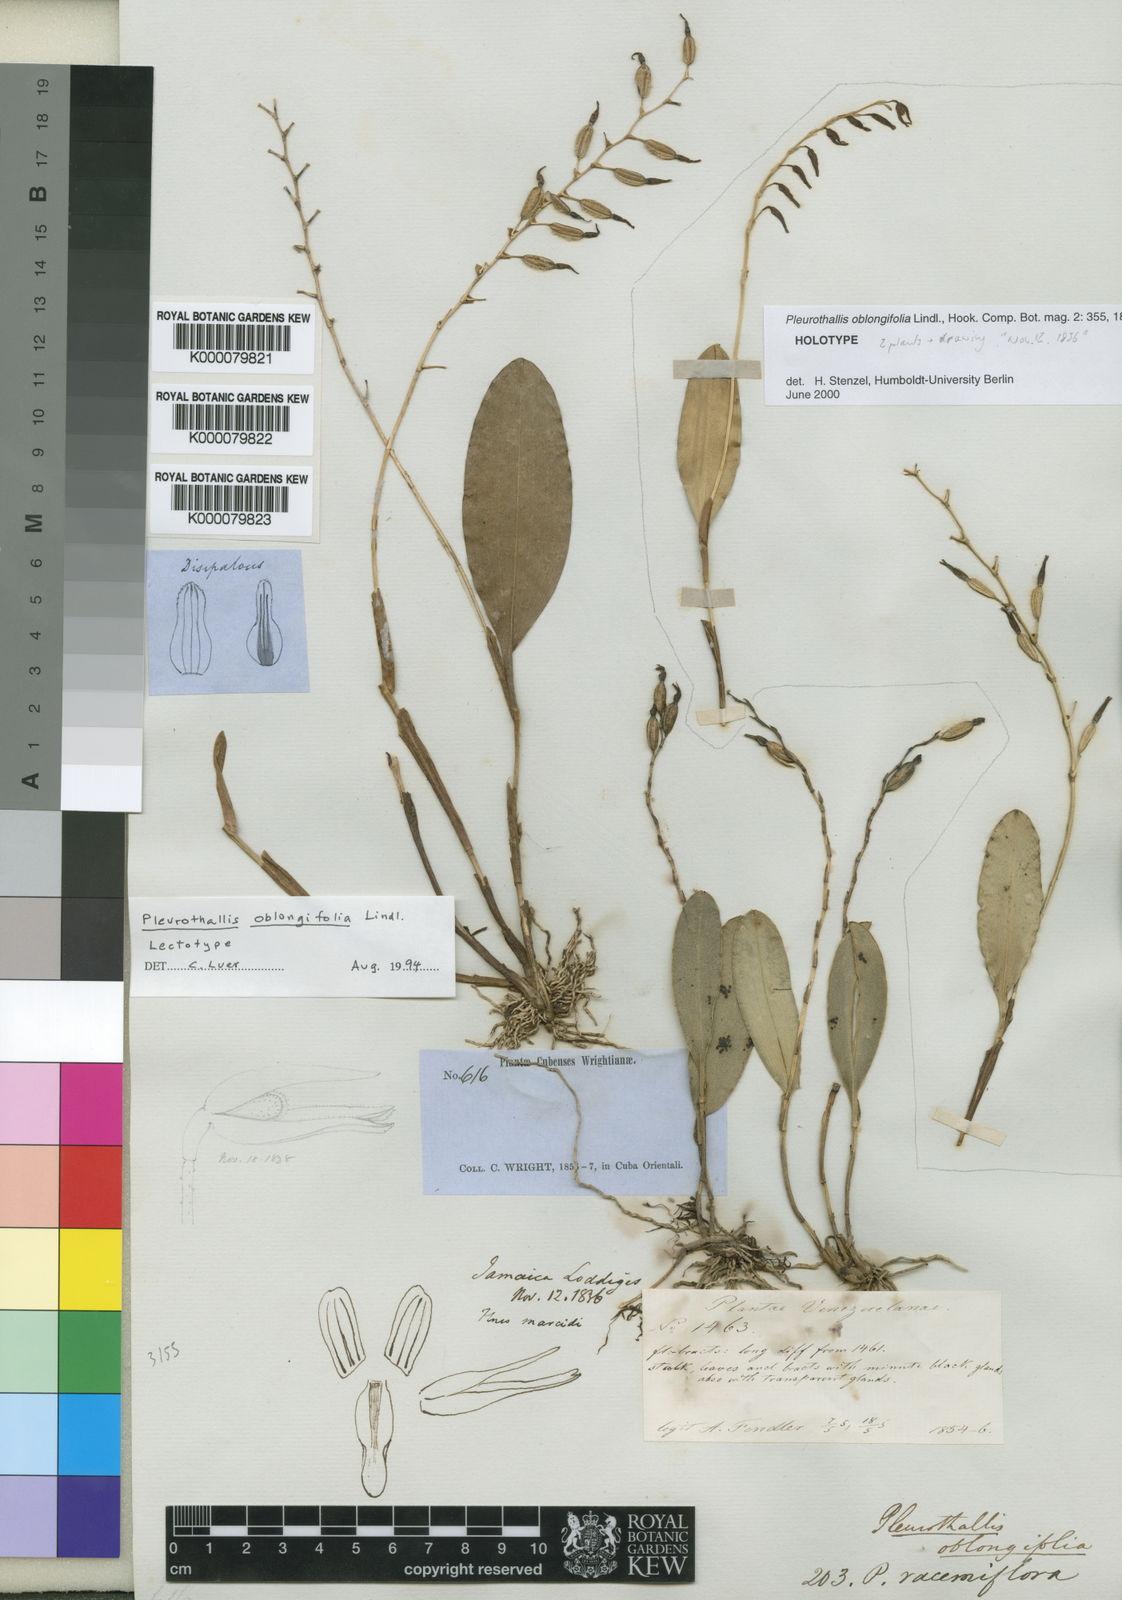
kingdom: Plantae
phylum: Tracheophyta
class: Liliopsida
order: Asparagales
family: Orchidaceae
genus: Pleurothallis
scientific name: Pleurothallis
